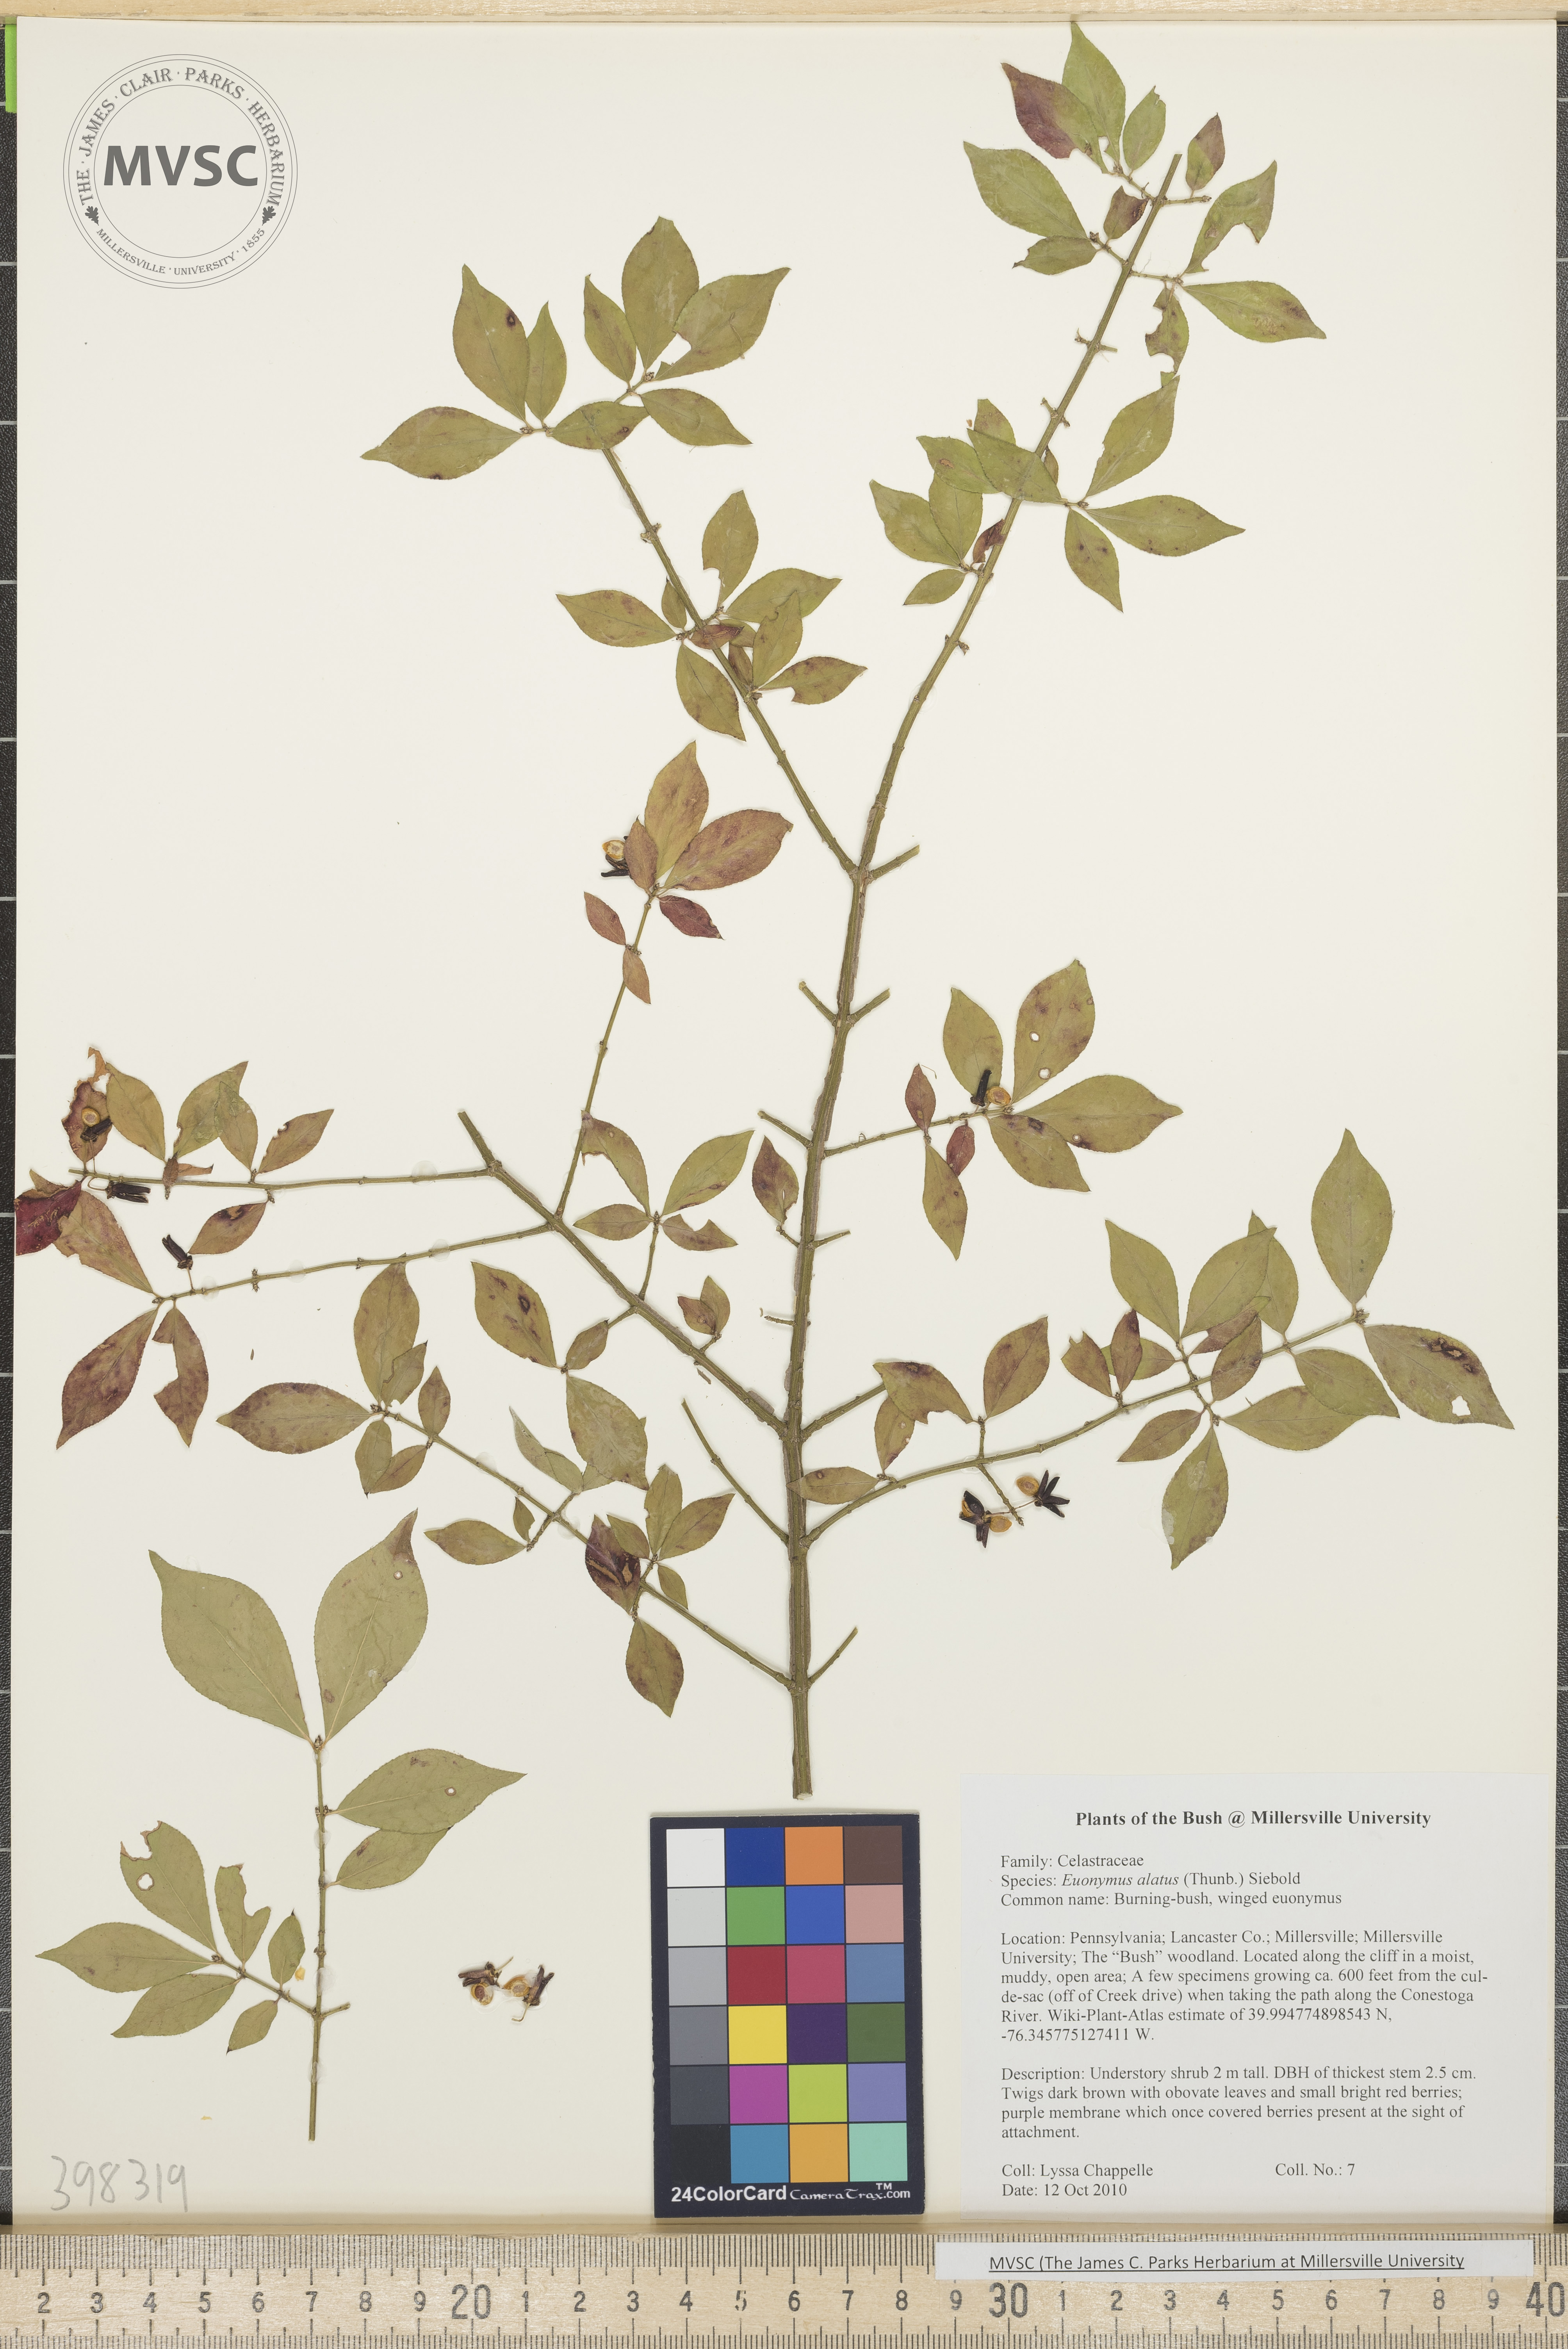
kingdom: Plantae
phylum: Tracheophyta
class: Magnoliopsida
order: Celastrales
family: Celastraceae
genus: Euonymus
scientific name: Euonymus alatus
